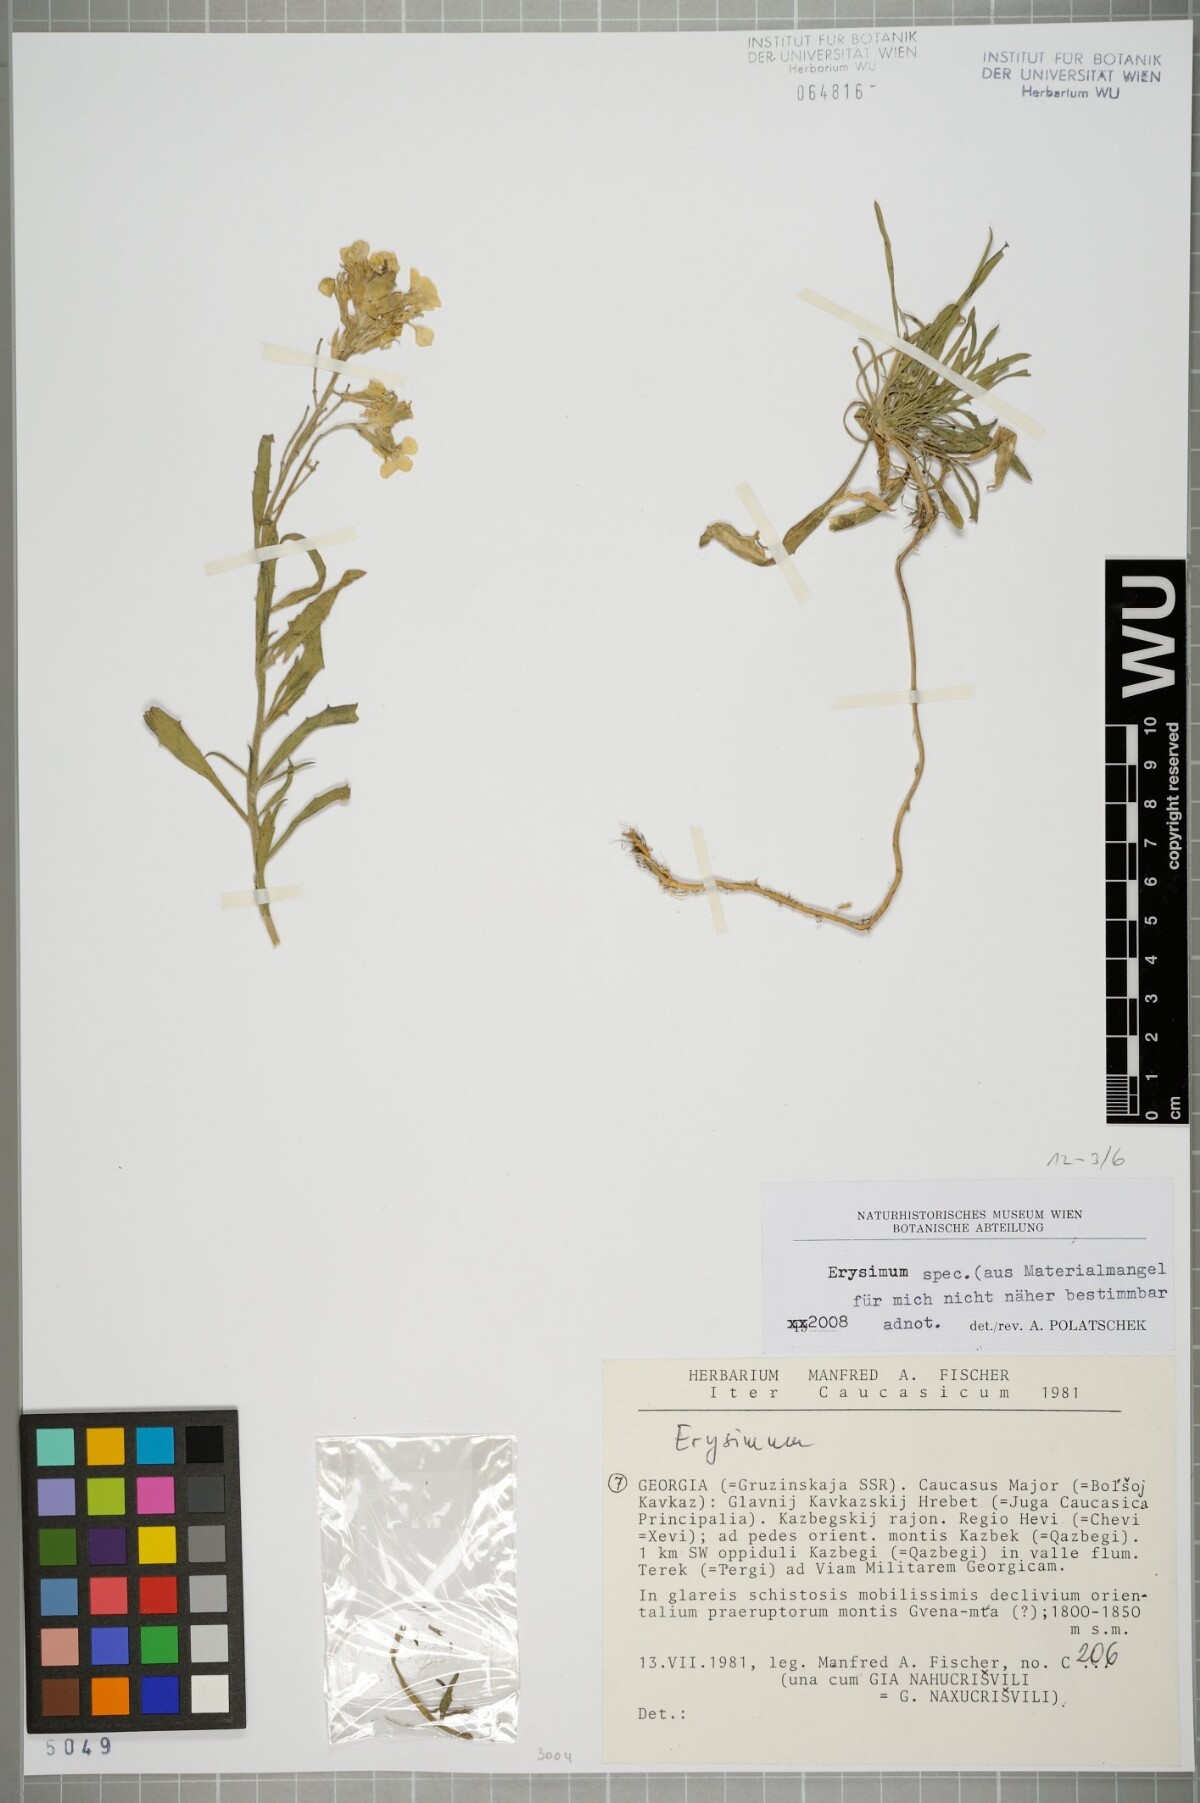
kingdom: Plantae
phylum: Tracheophyta
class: Magnoliopsida
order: Brassicales
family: Brassicaceae
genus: Erysimum
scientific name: Erysimum
